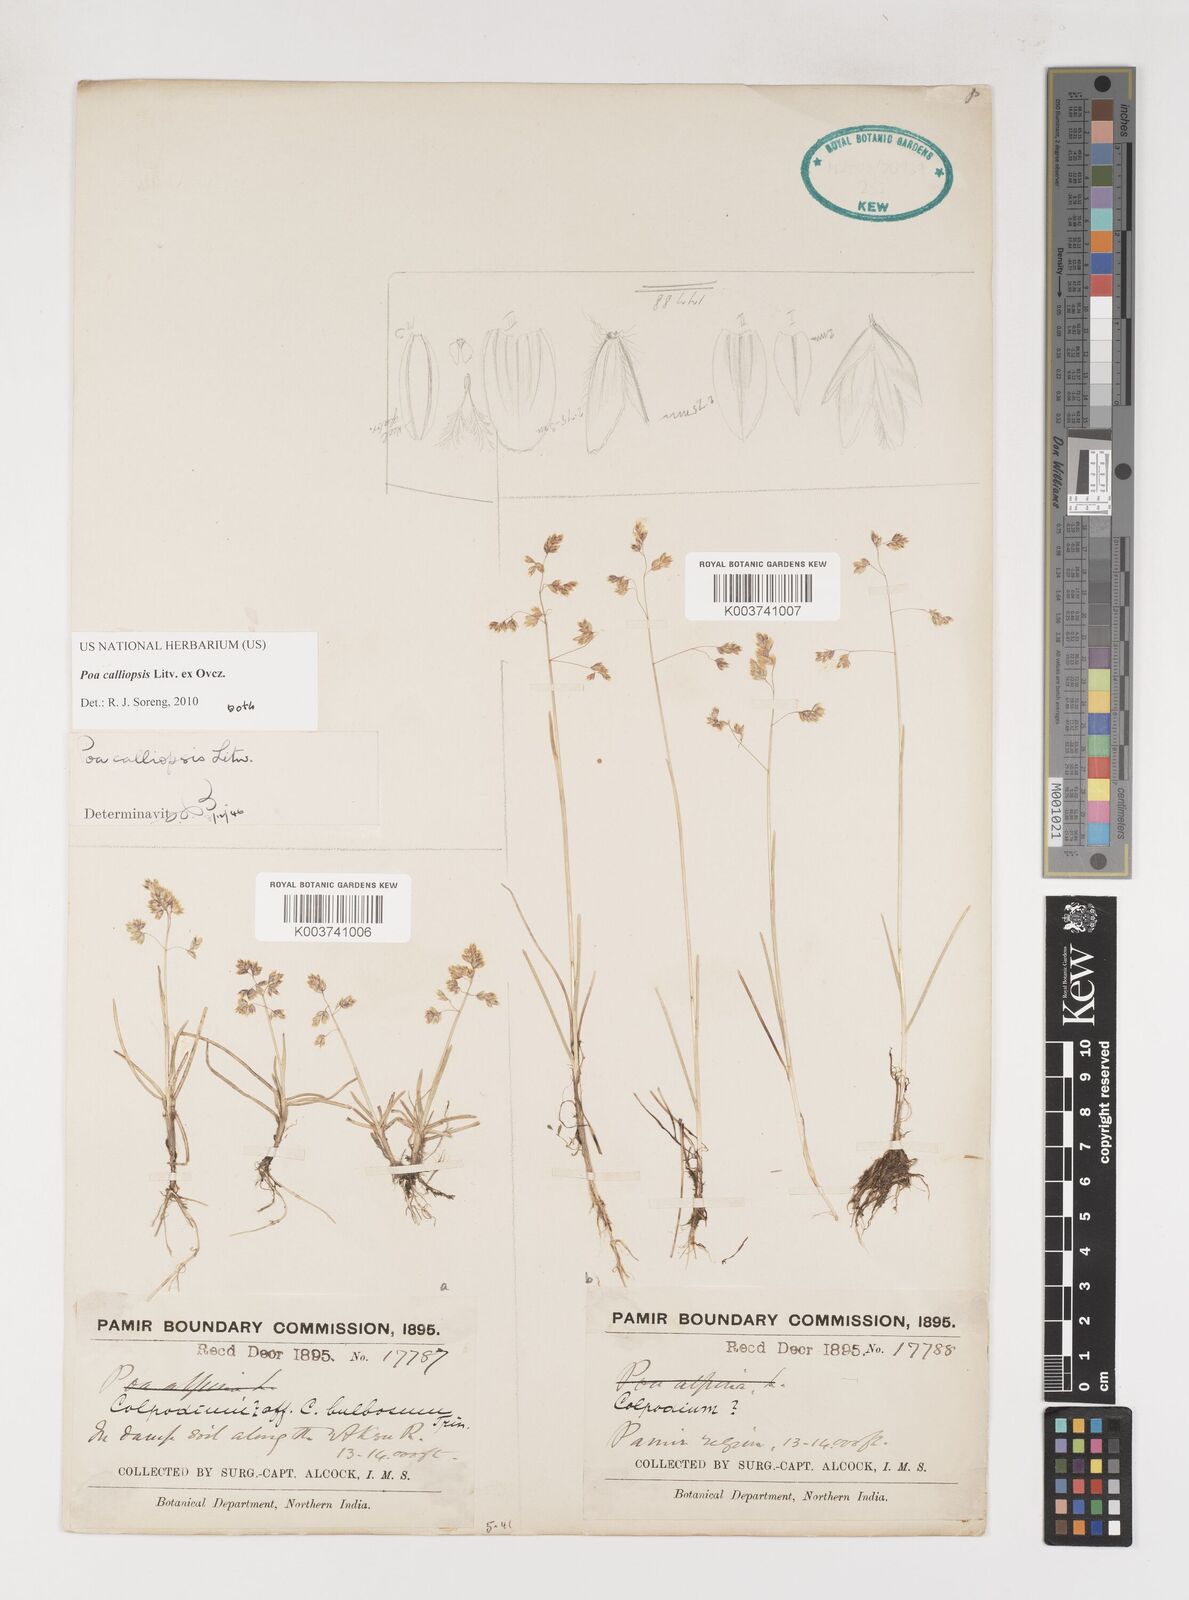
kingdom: Plantae
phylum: Tracheophyta
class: Liliopsida
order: Poales
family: Poaceae
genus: Poa
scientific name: Poa calliopsis
